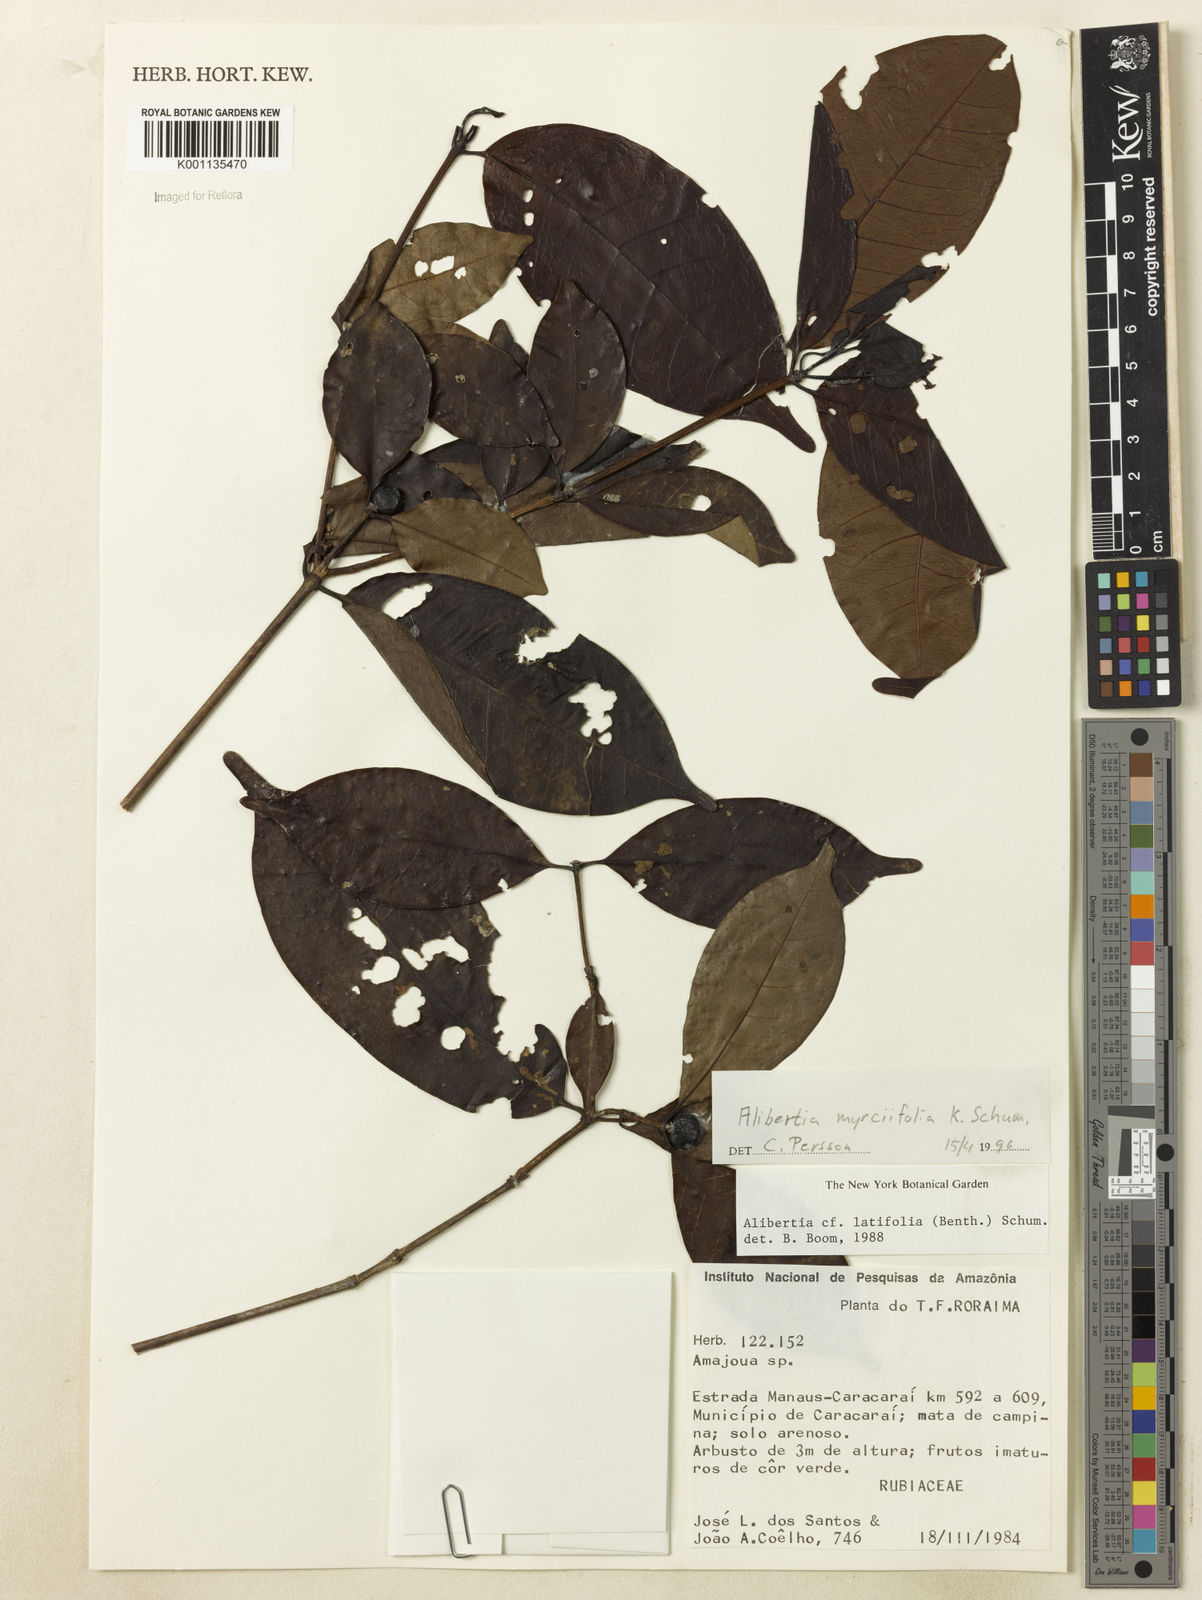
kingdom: Plantae
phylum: Tracheophyta
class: Magnoliopsida
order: Gentianales
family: Rubiaceae
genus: Cordiera
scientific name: Cordiera myrciifolia
